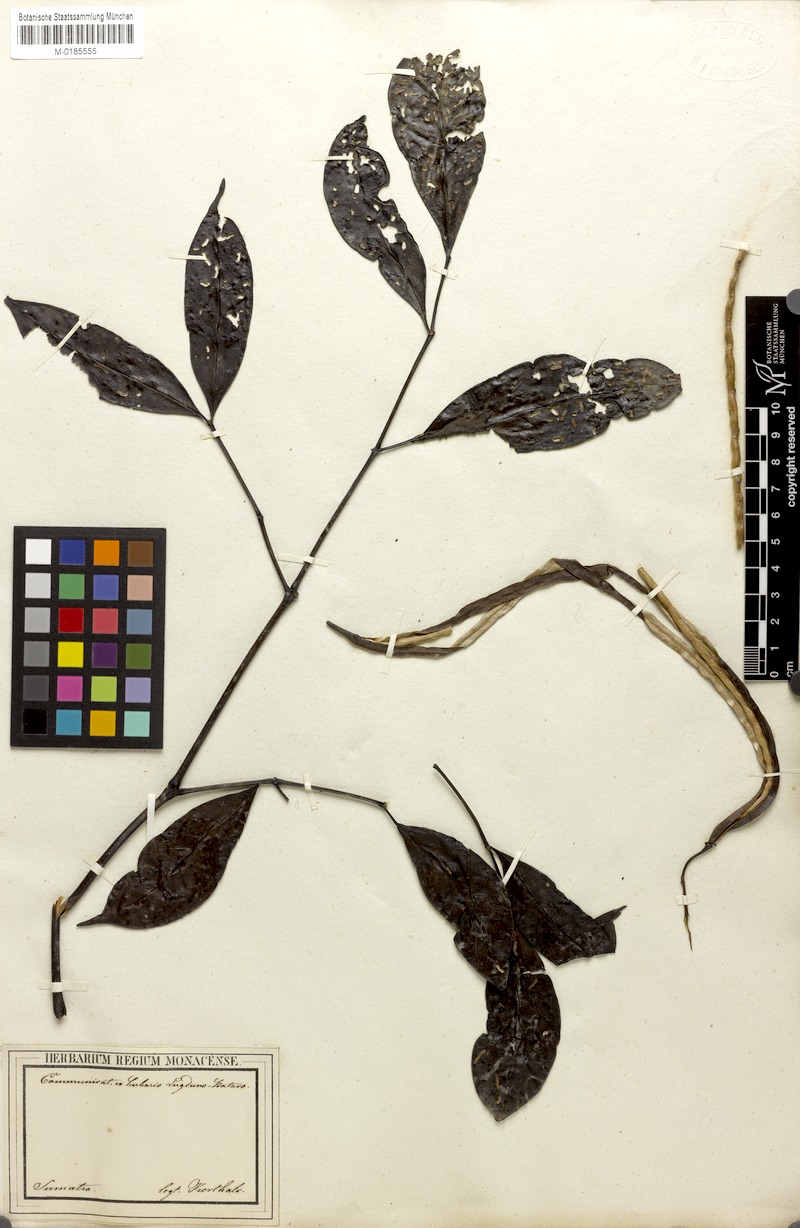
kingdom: Plantae
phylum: Tracheophyta
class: Magnoliopsida
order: Lamiales
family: Bignoniaceae
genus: Radermachera
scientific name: Radermachera gigantea
